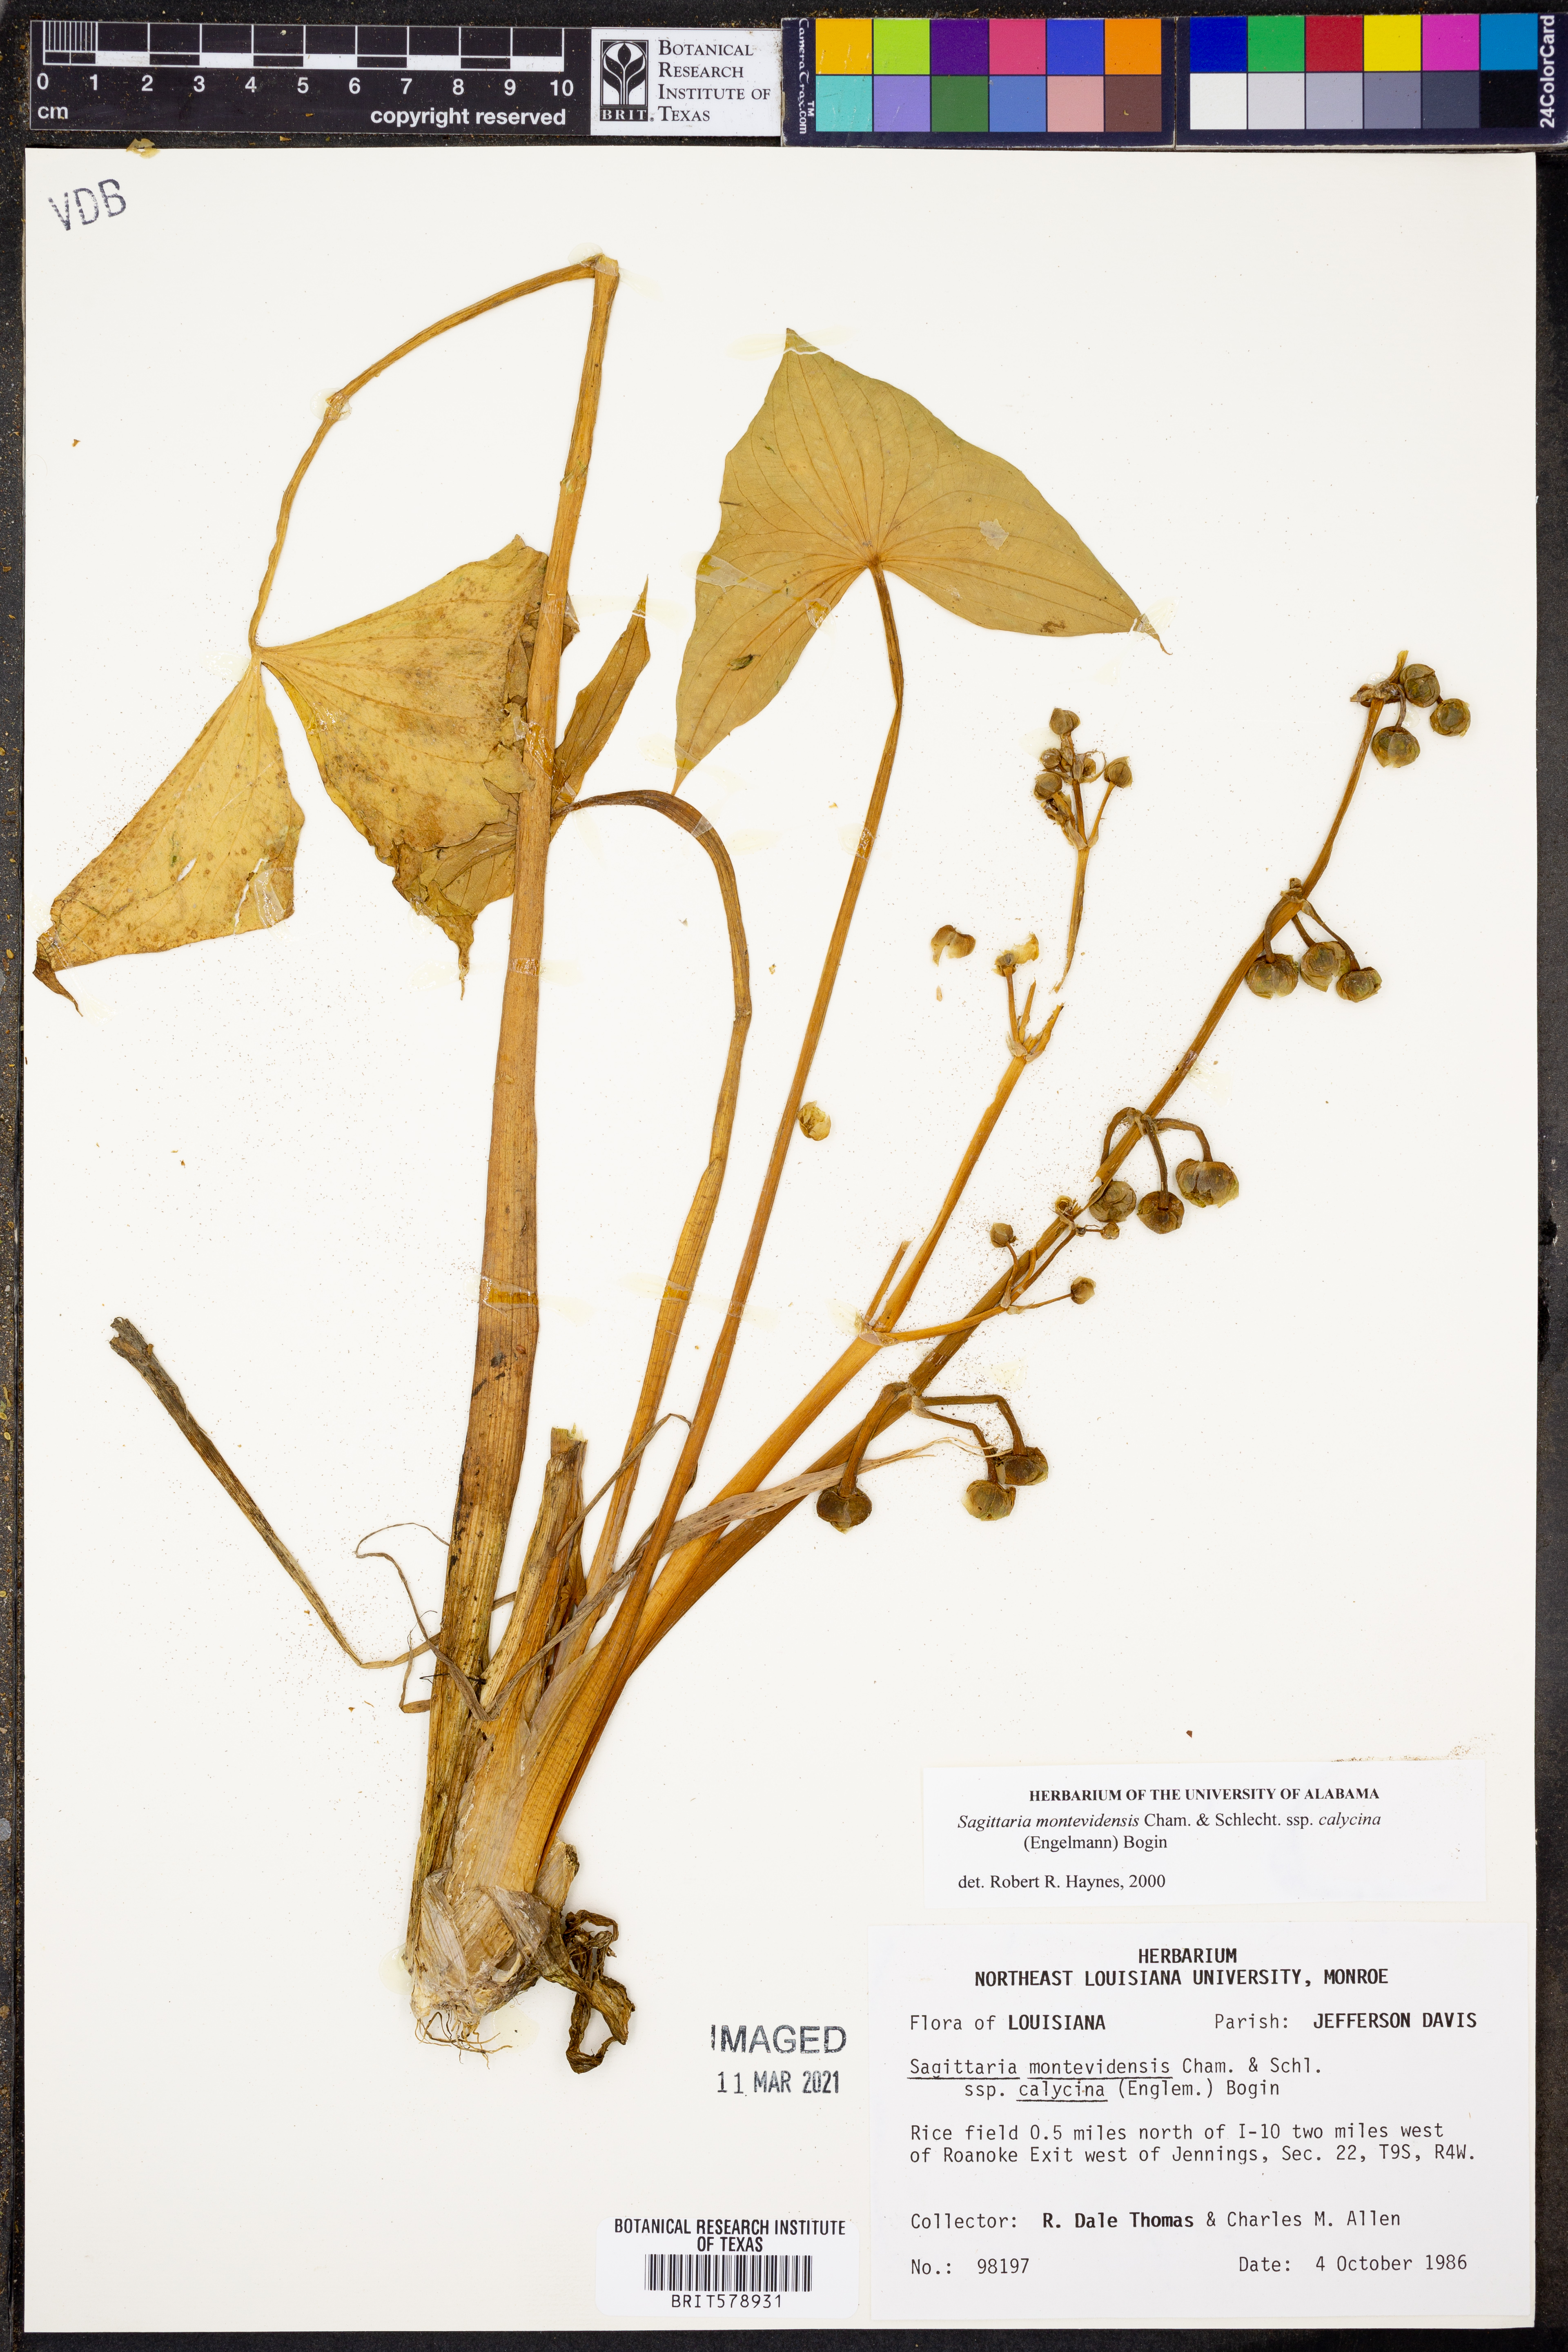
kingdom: Plantae
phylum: Tracheophyta
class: Liliopsida
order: Alismatales
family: Alismataceae
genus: Sagittaria
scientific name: Sagittaria montevidensis
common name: Giant arrowhead
